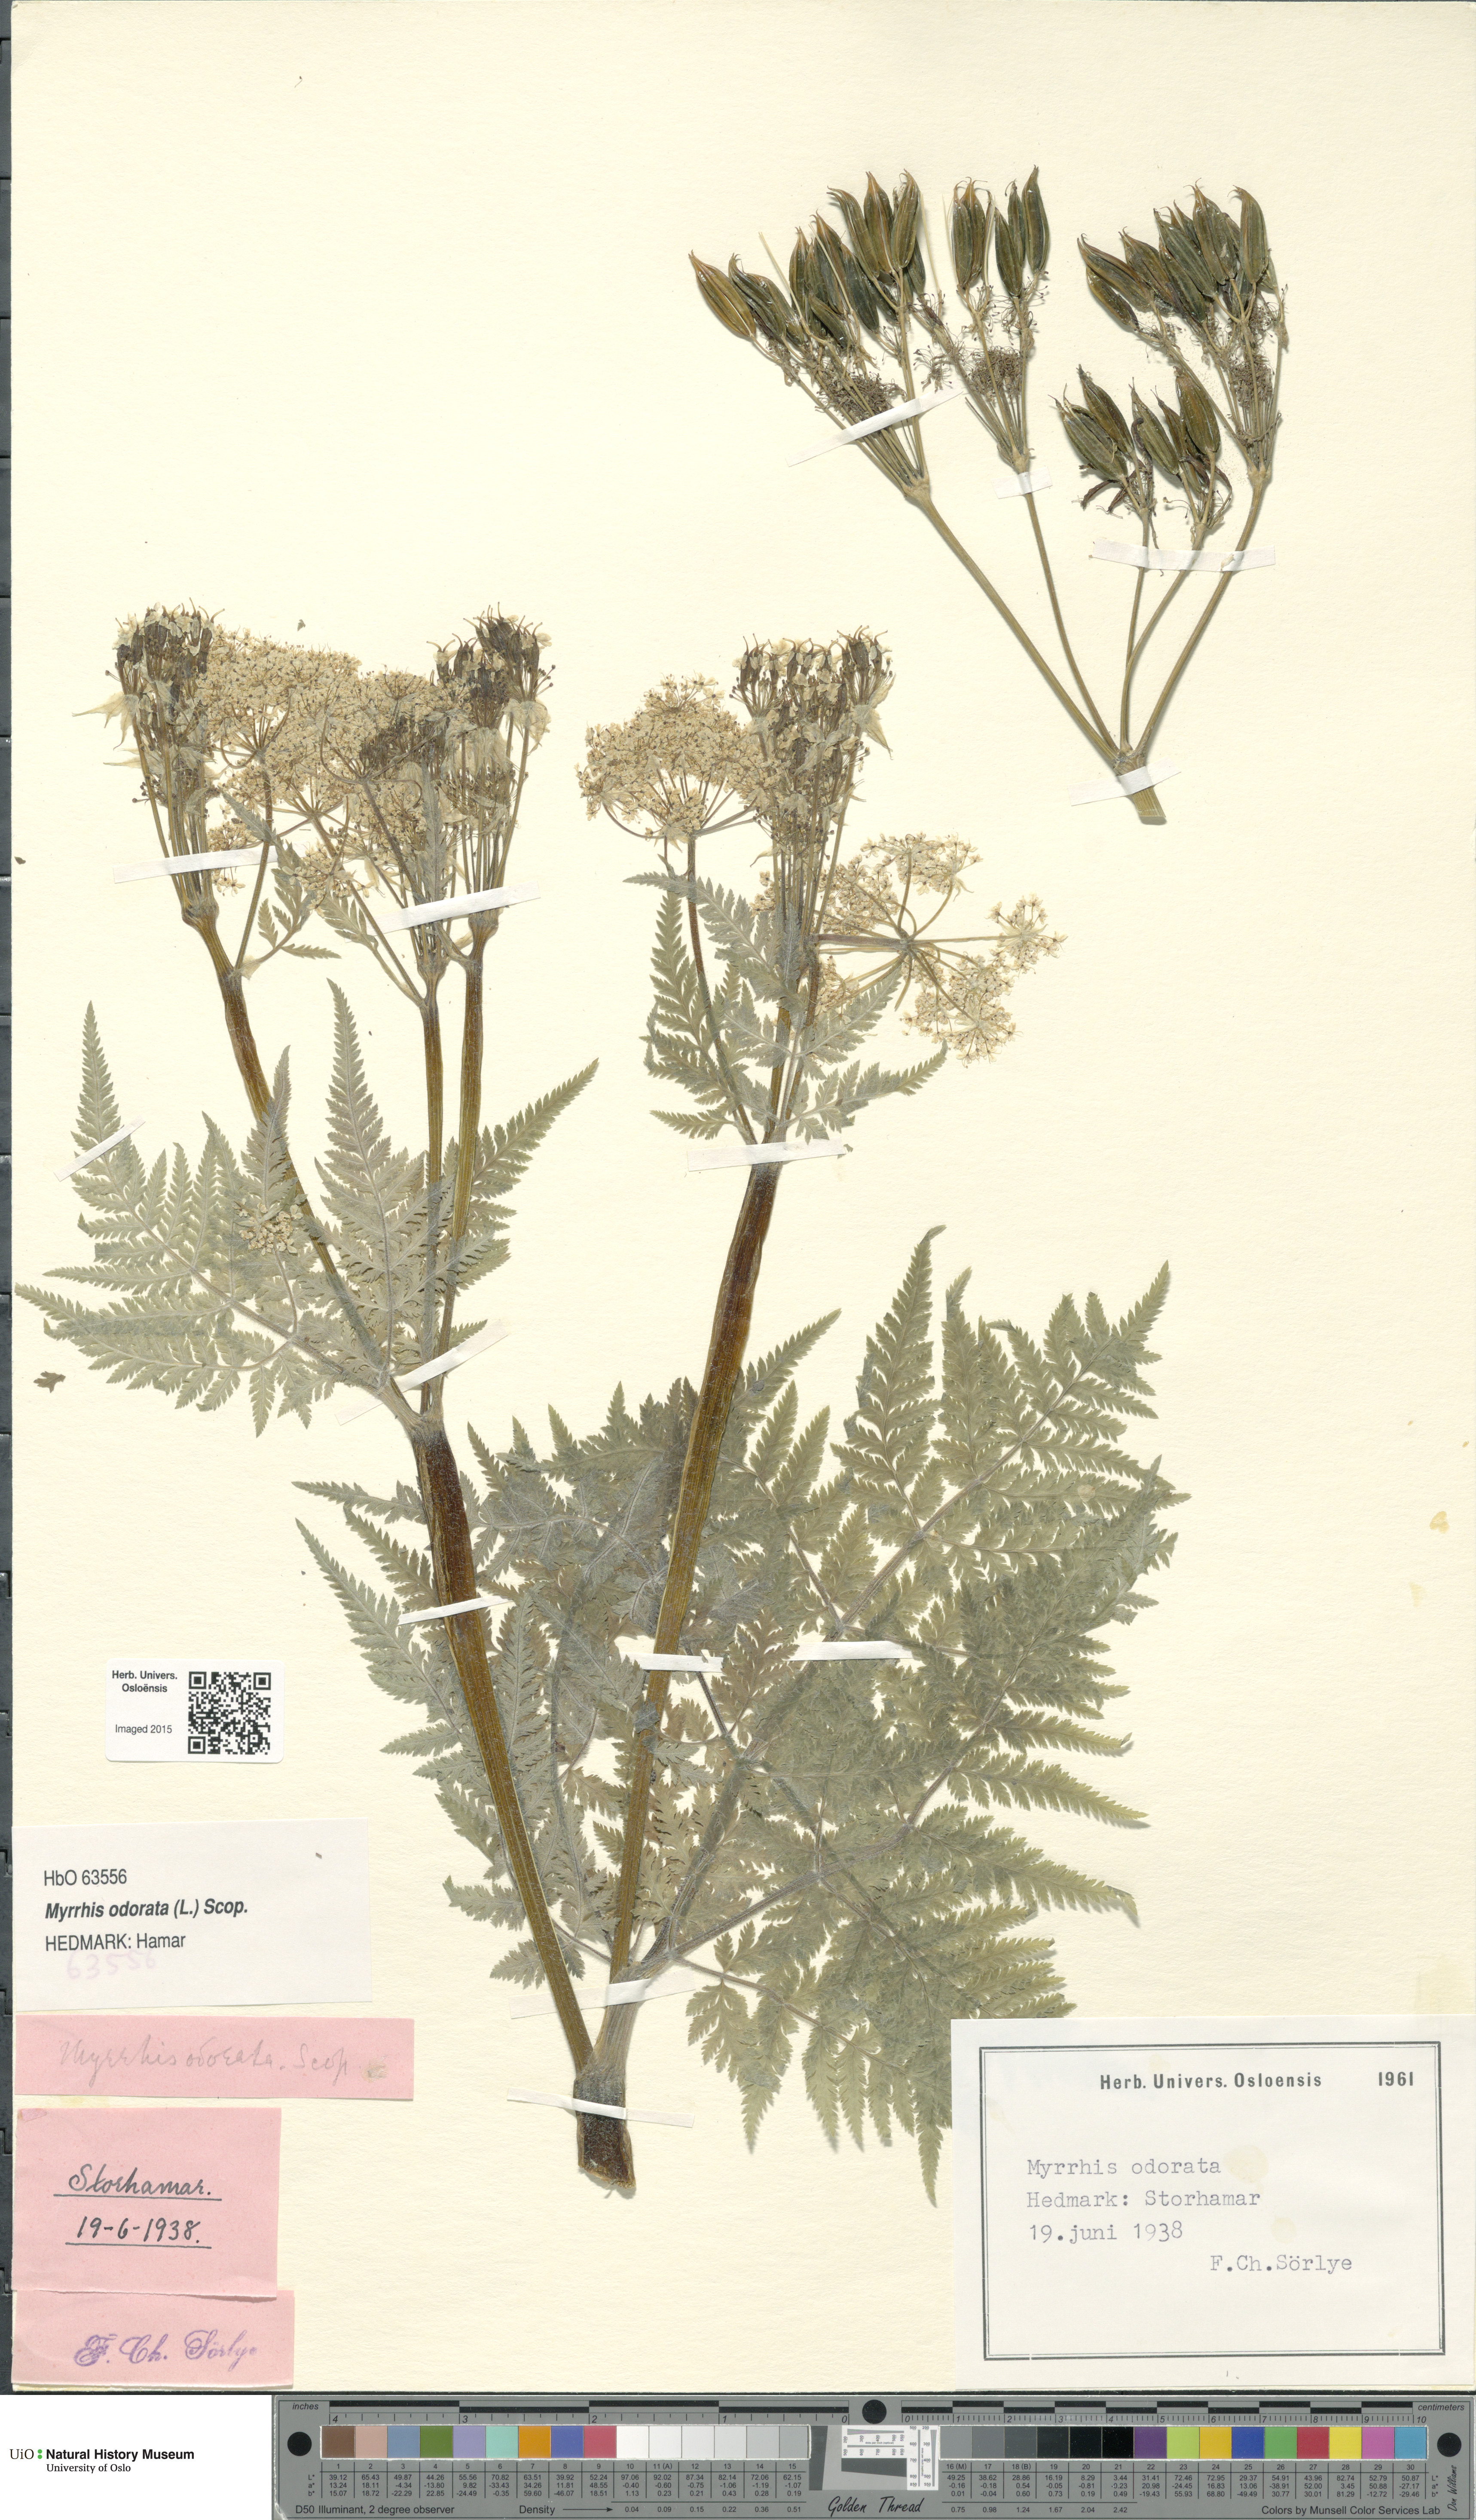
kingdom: Plantae
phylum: Tracheophyta
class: Magnoliopsida
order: Apiales
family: Apiaceae
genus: Myrrhis
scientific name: Myrrhis odorata
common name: Sweet cicely
